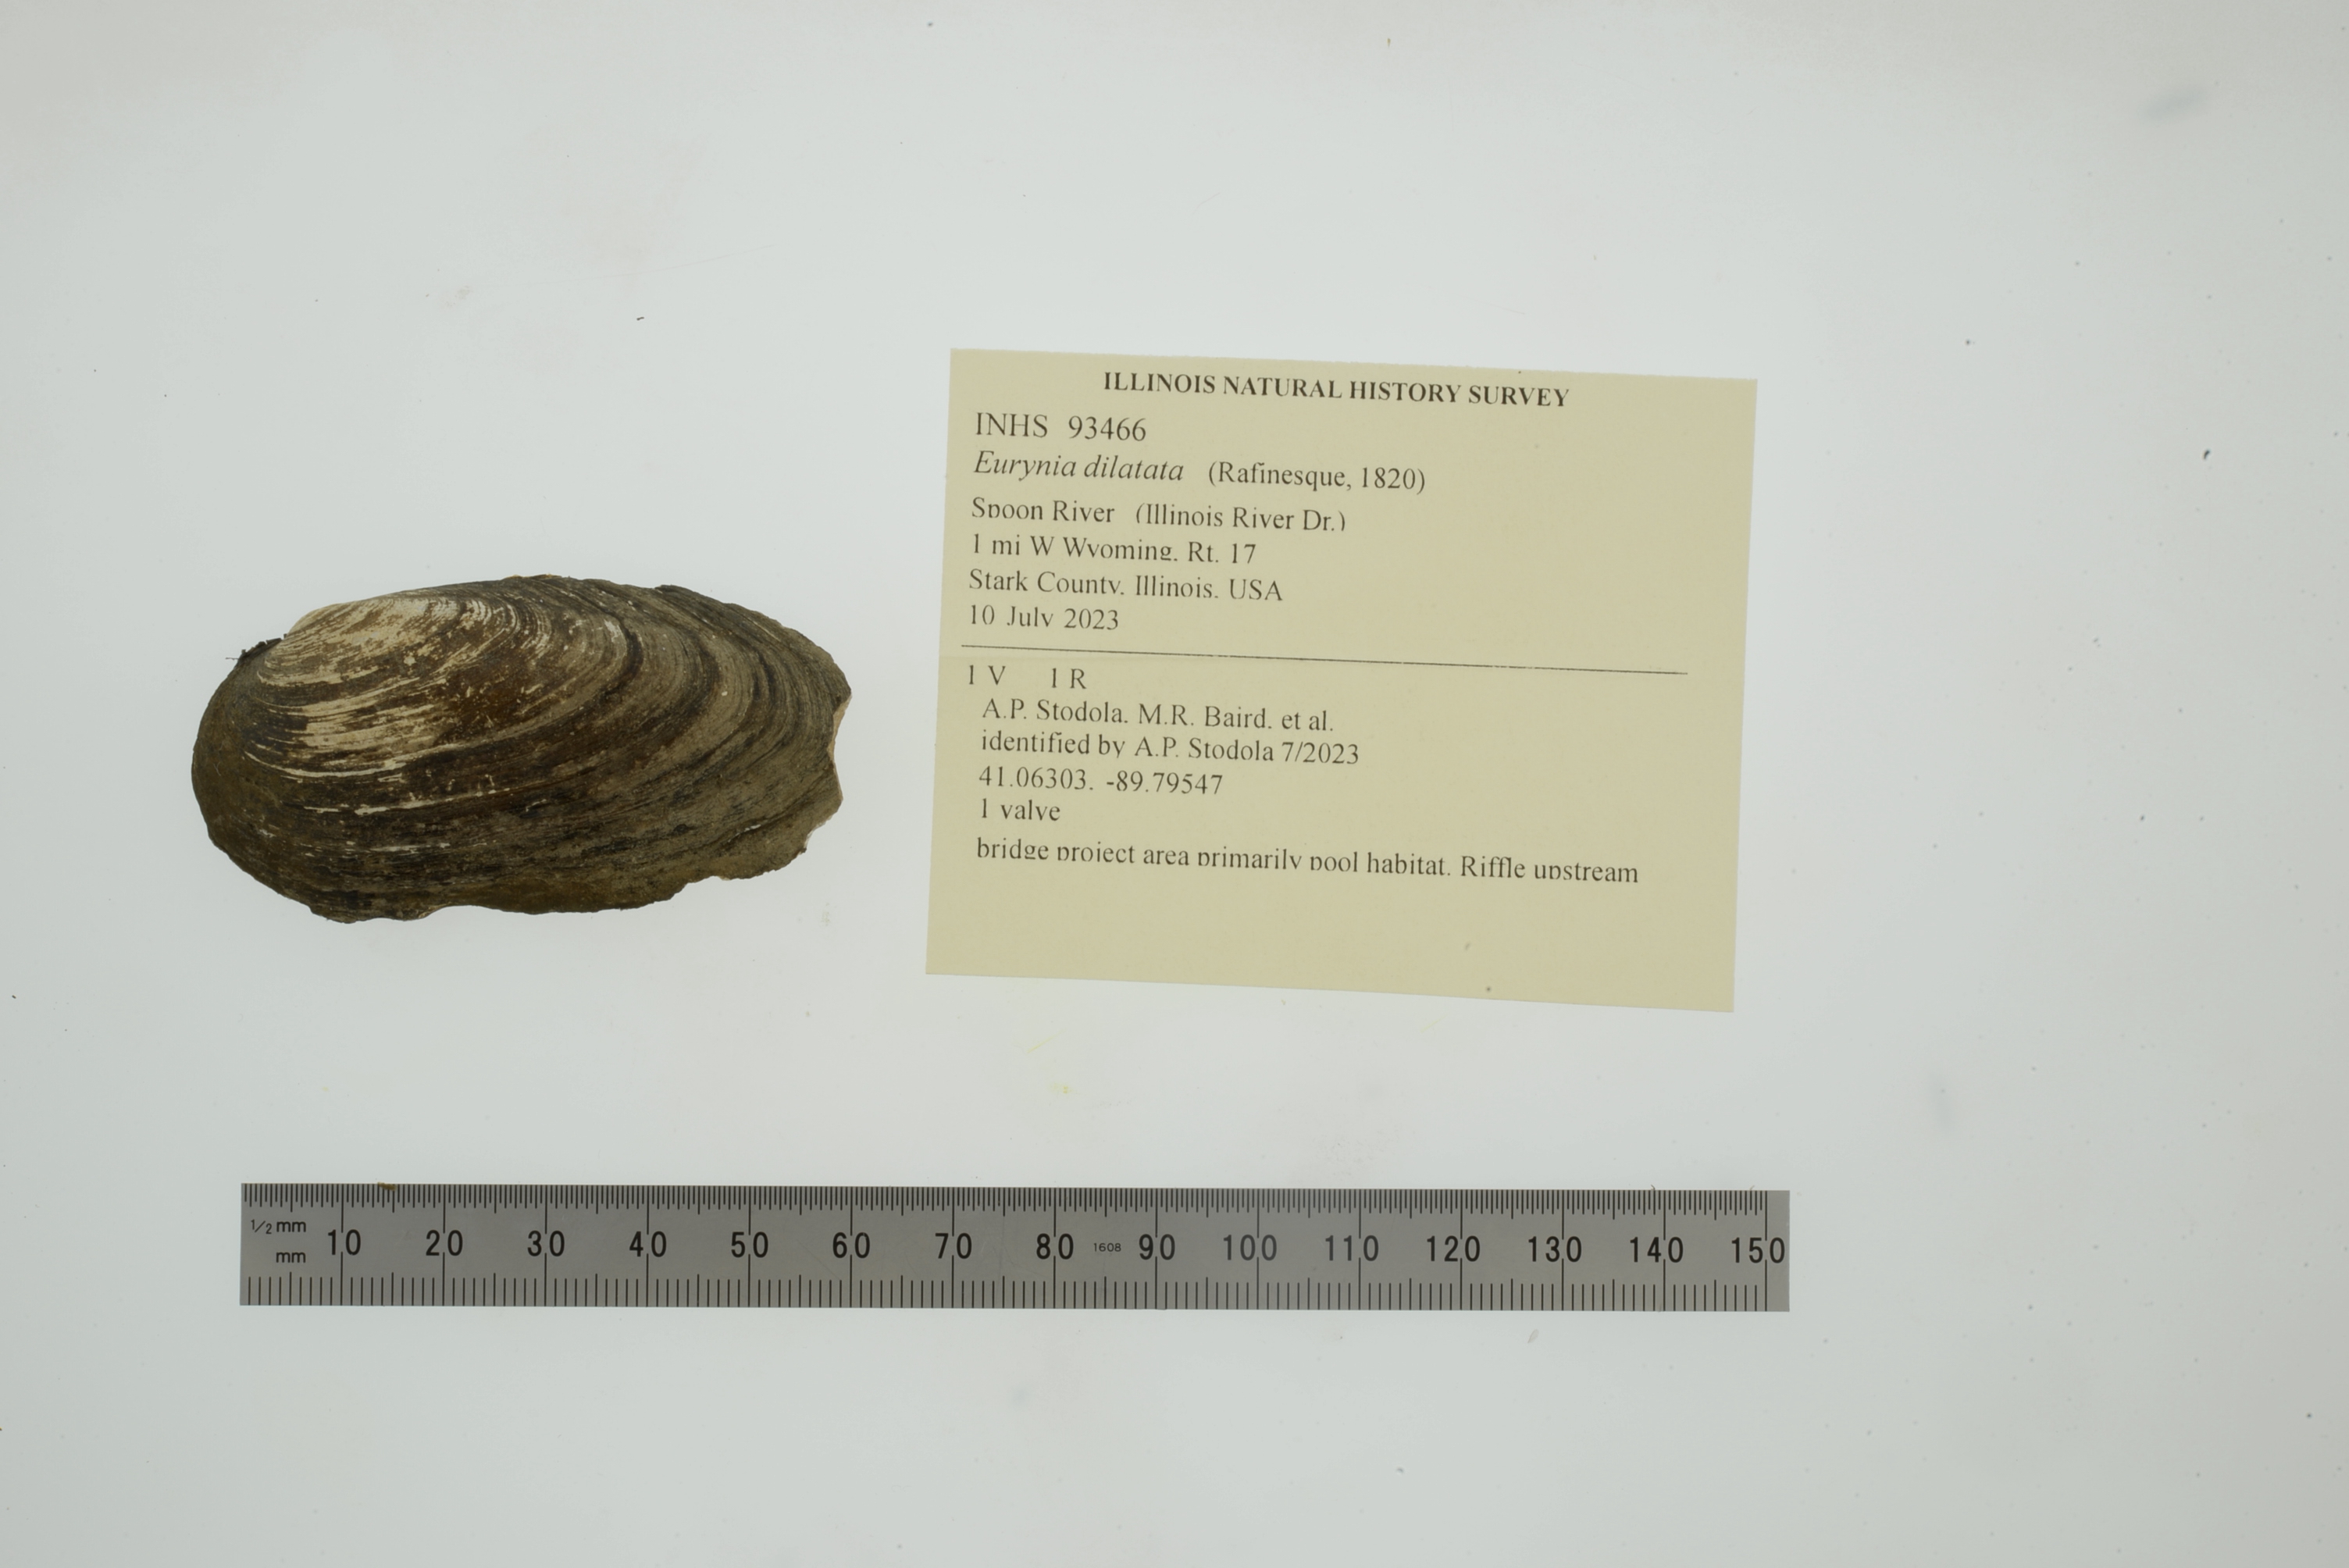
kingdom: Animalia
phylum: Mollusca
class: Bivalvia
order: Unionida
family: Unionidae
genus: Eurynia
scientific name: Eurynia dilatata
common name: Spike
